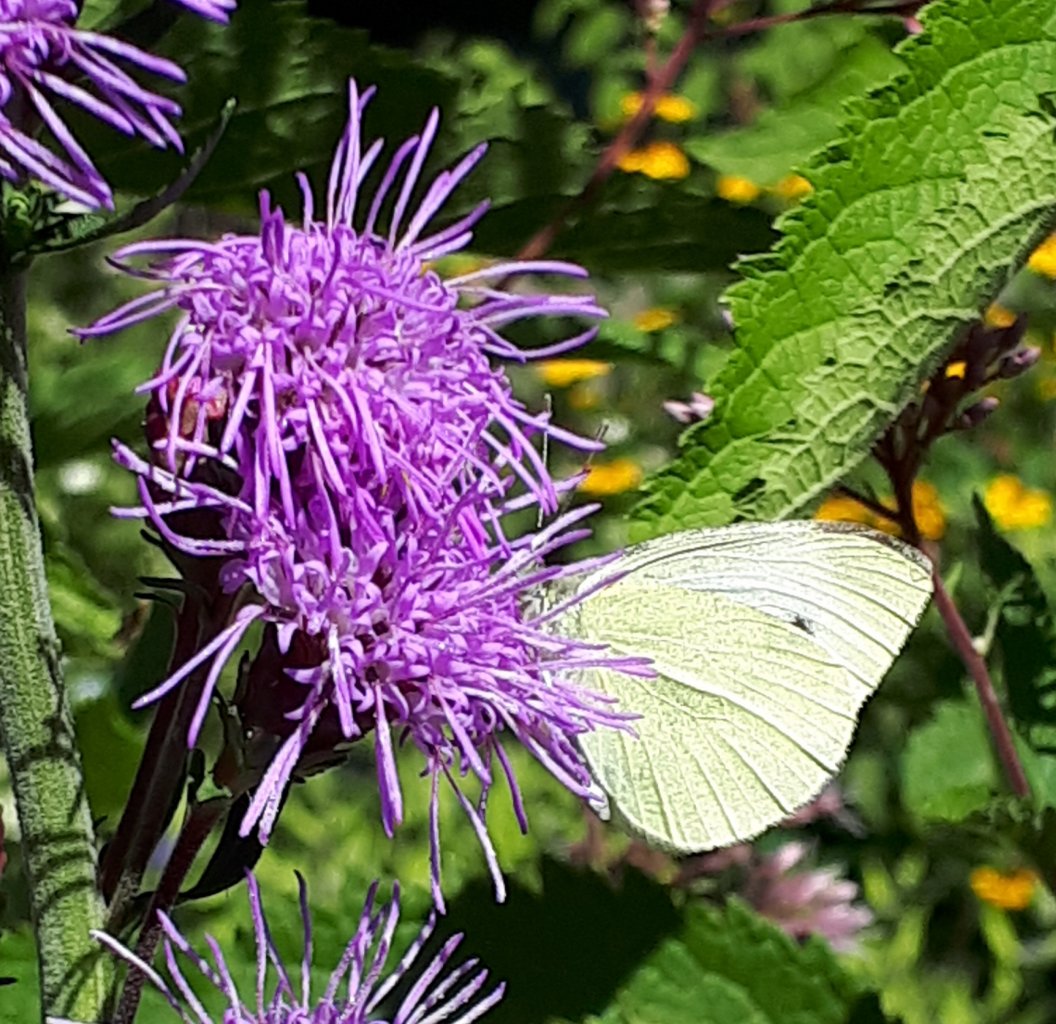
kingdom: Animalia
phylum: Arthropoda
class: Insecta
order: Lepidoptera
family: Pieridae
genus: Pieris
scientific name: Pieris rapae
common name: Cabbage White
